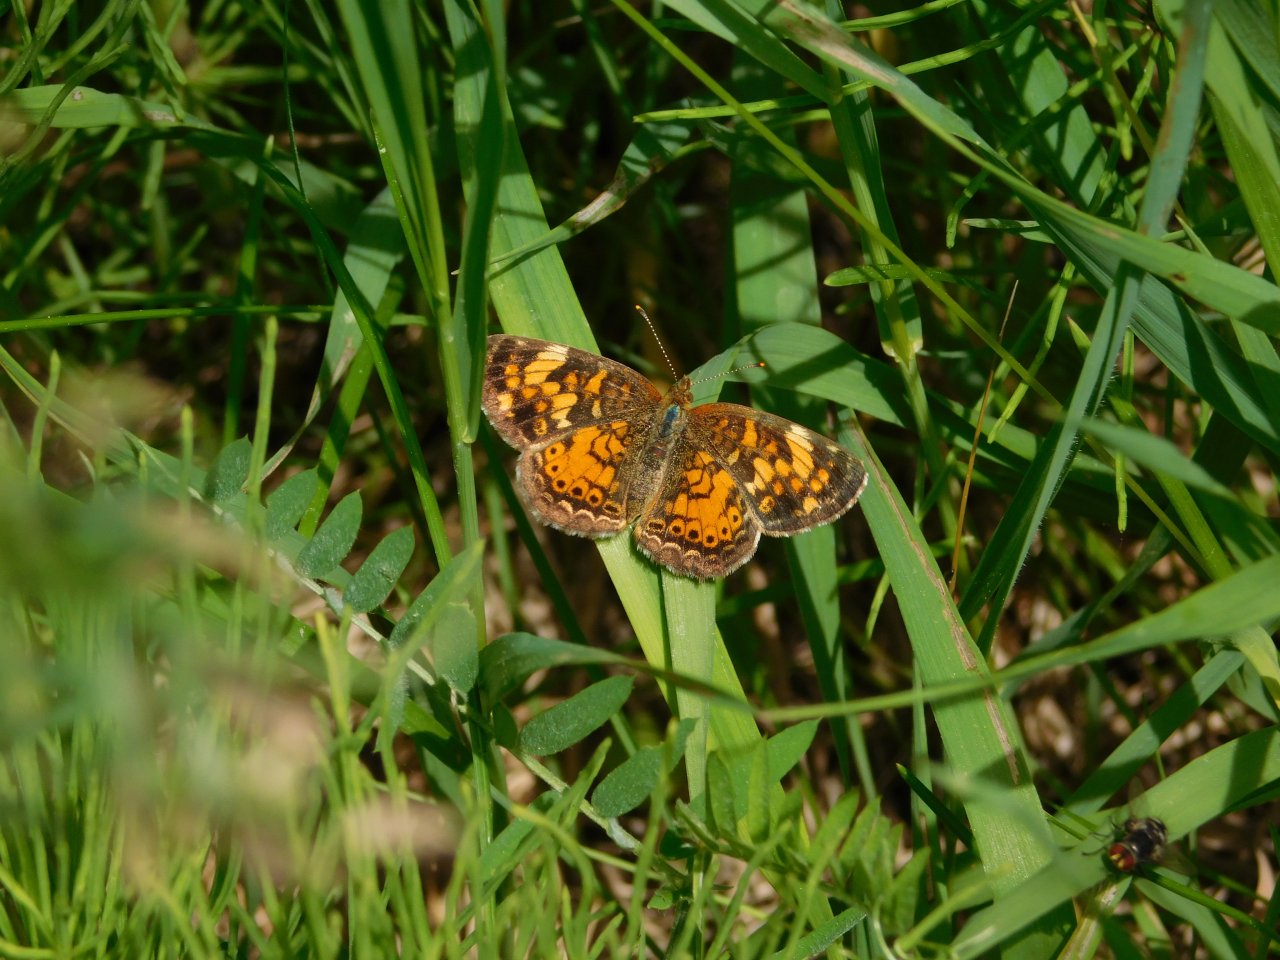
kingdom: Animalia
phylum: Arthropoda
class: Insecta
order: Lepidoptera
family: Nymphalidae
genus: Phyciodes
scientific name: Phyciodes tharos
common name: Northern Crescent
